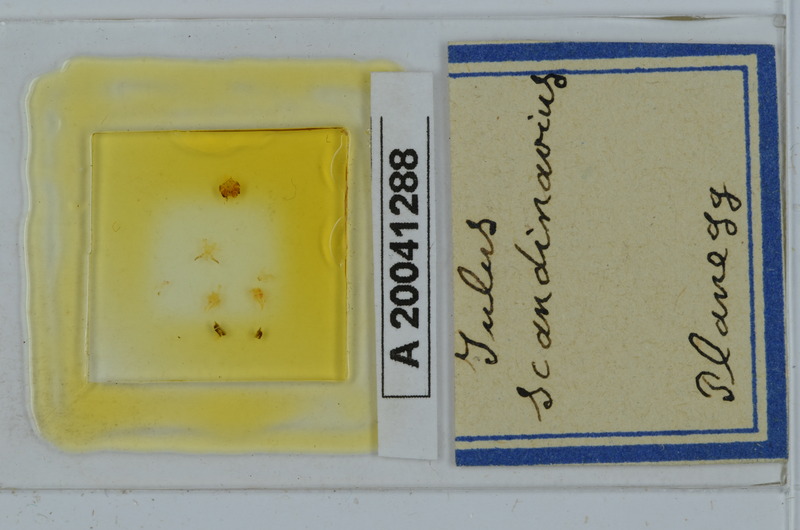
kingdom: Animalia
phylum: Arthropoda
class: Diplopoda
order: Julida
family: Julidae
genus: Julus
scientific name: Julus scandinavius
